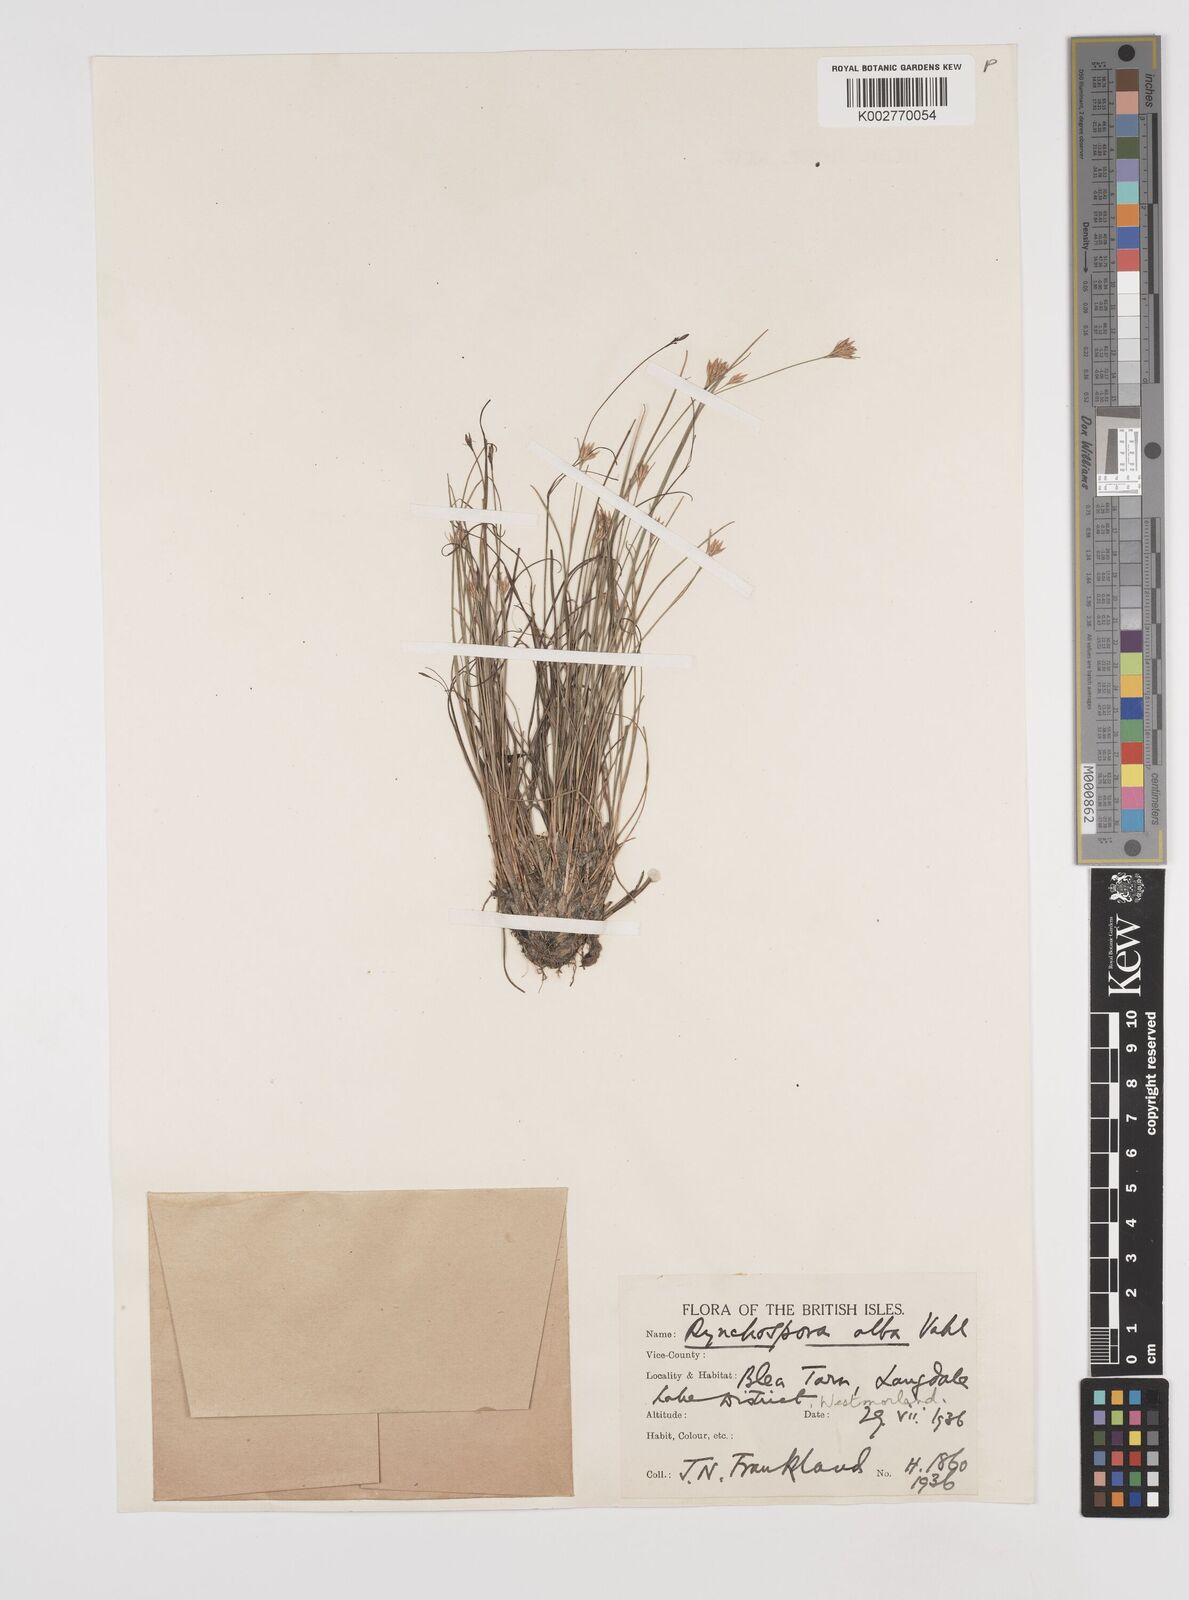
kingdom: Plantae
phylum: Tracheophyta
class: Liliopsida
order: Poales
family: Cyperaceae
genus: Rhynchospora
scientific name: Rhynchospora alba
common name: White beak-sedge
